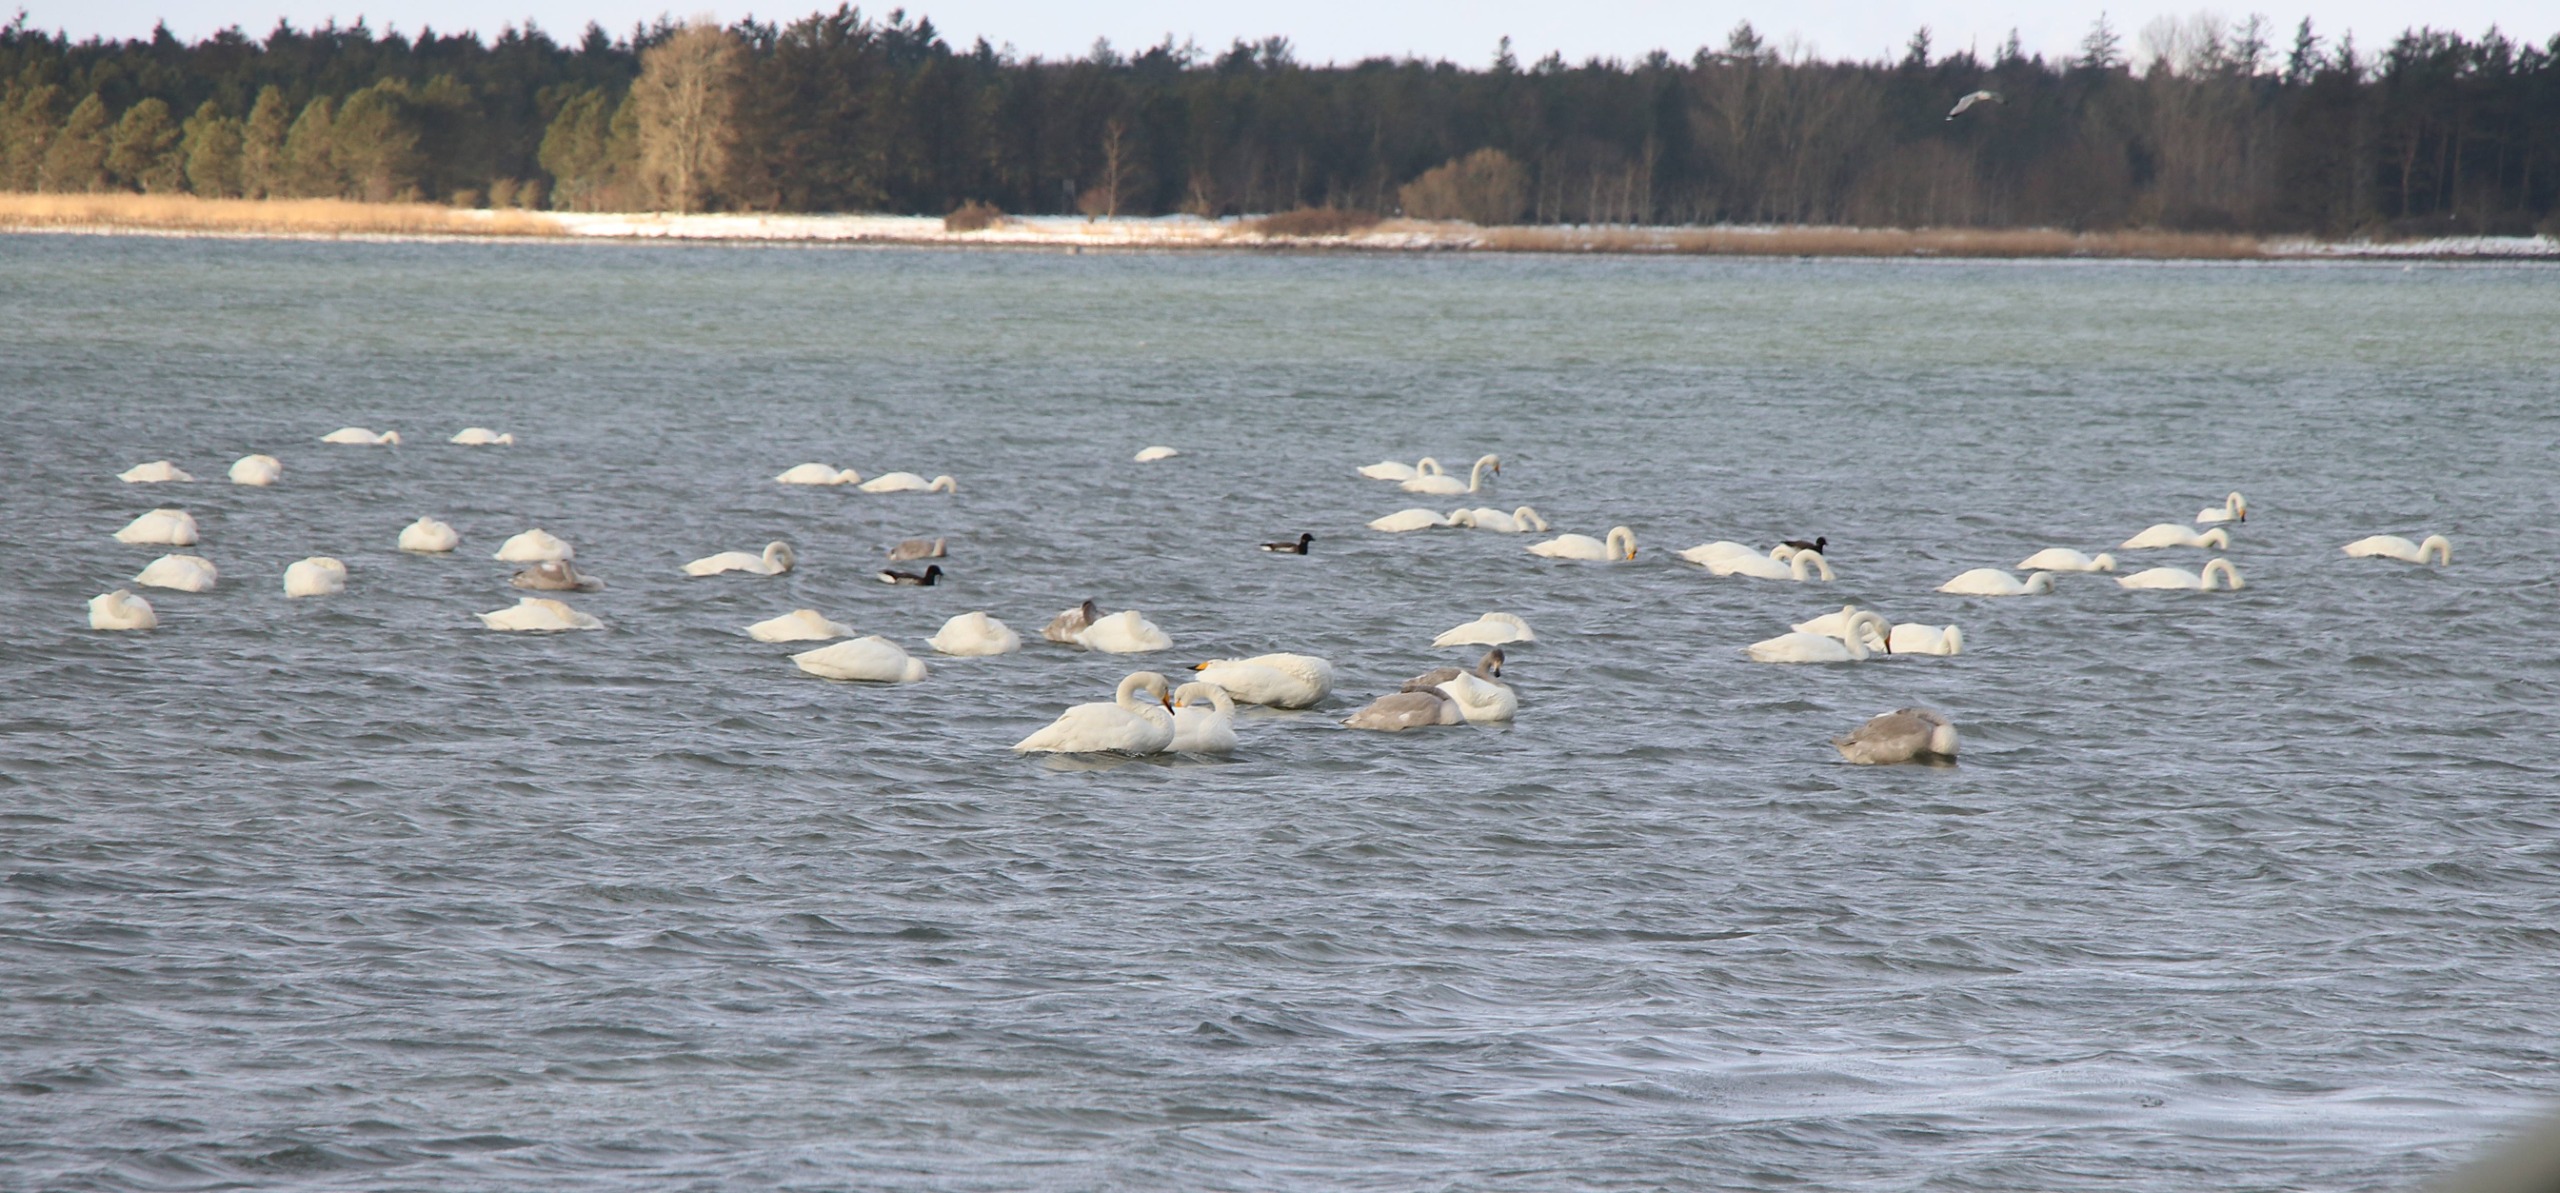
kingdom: Animalia
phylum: Chordata
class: Aves
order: Anseriformes
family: Anatidae
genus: Cygnus
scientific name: Cygnus cygnus
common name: Sangsvane
